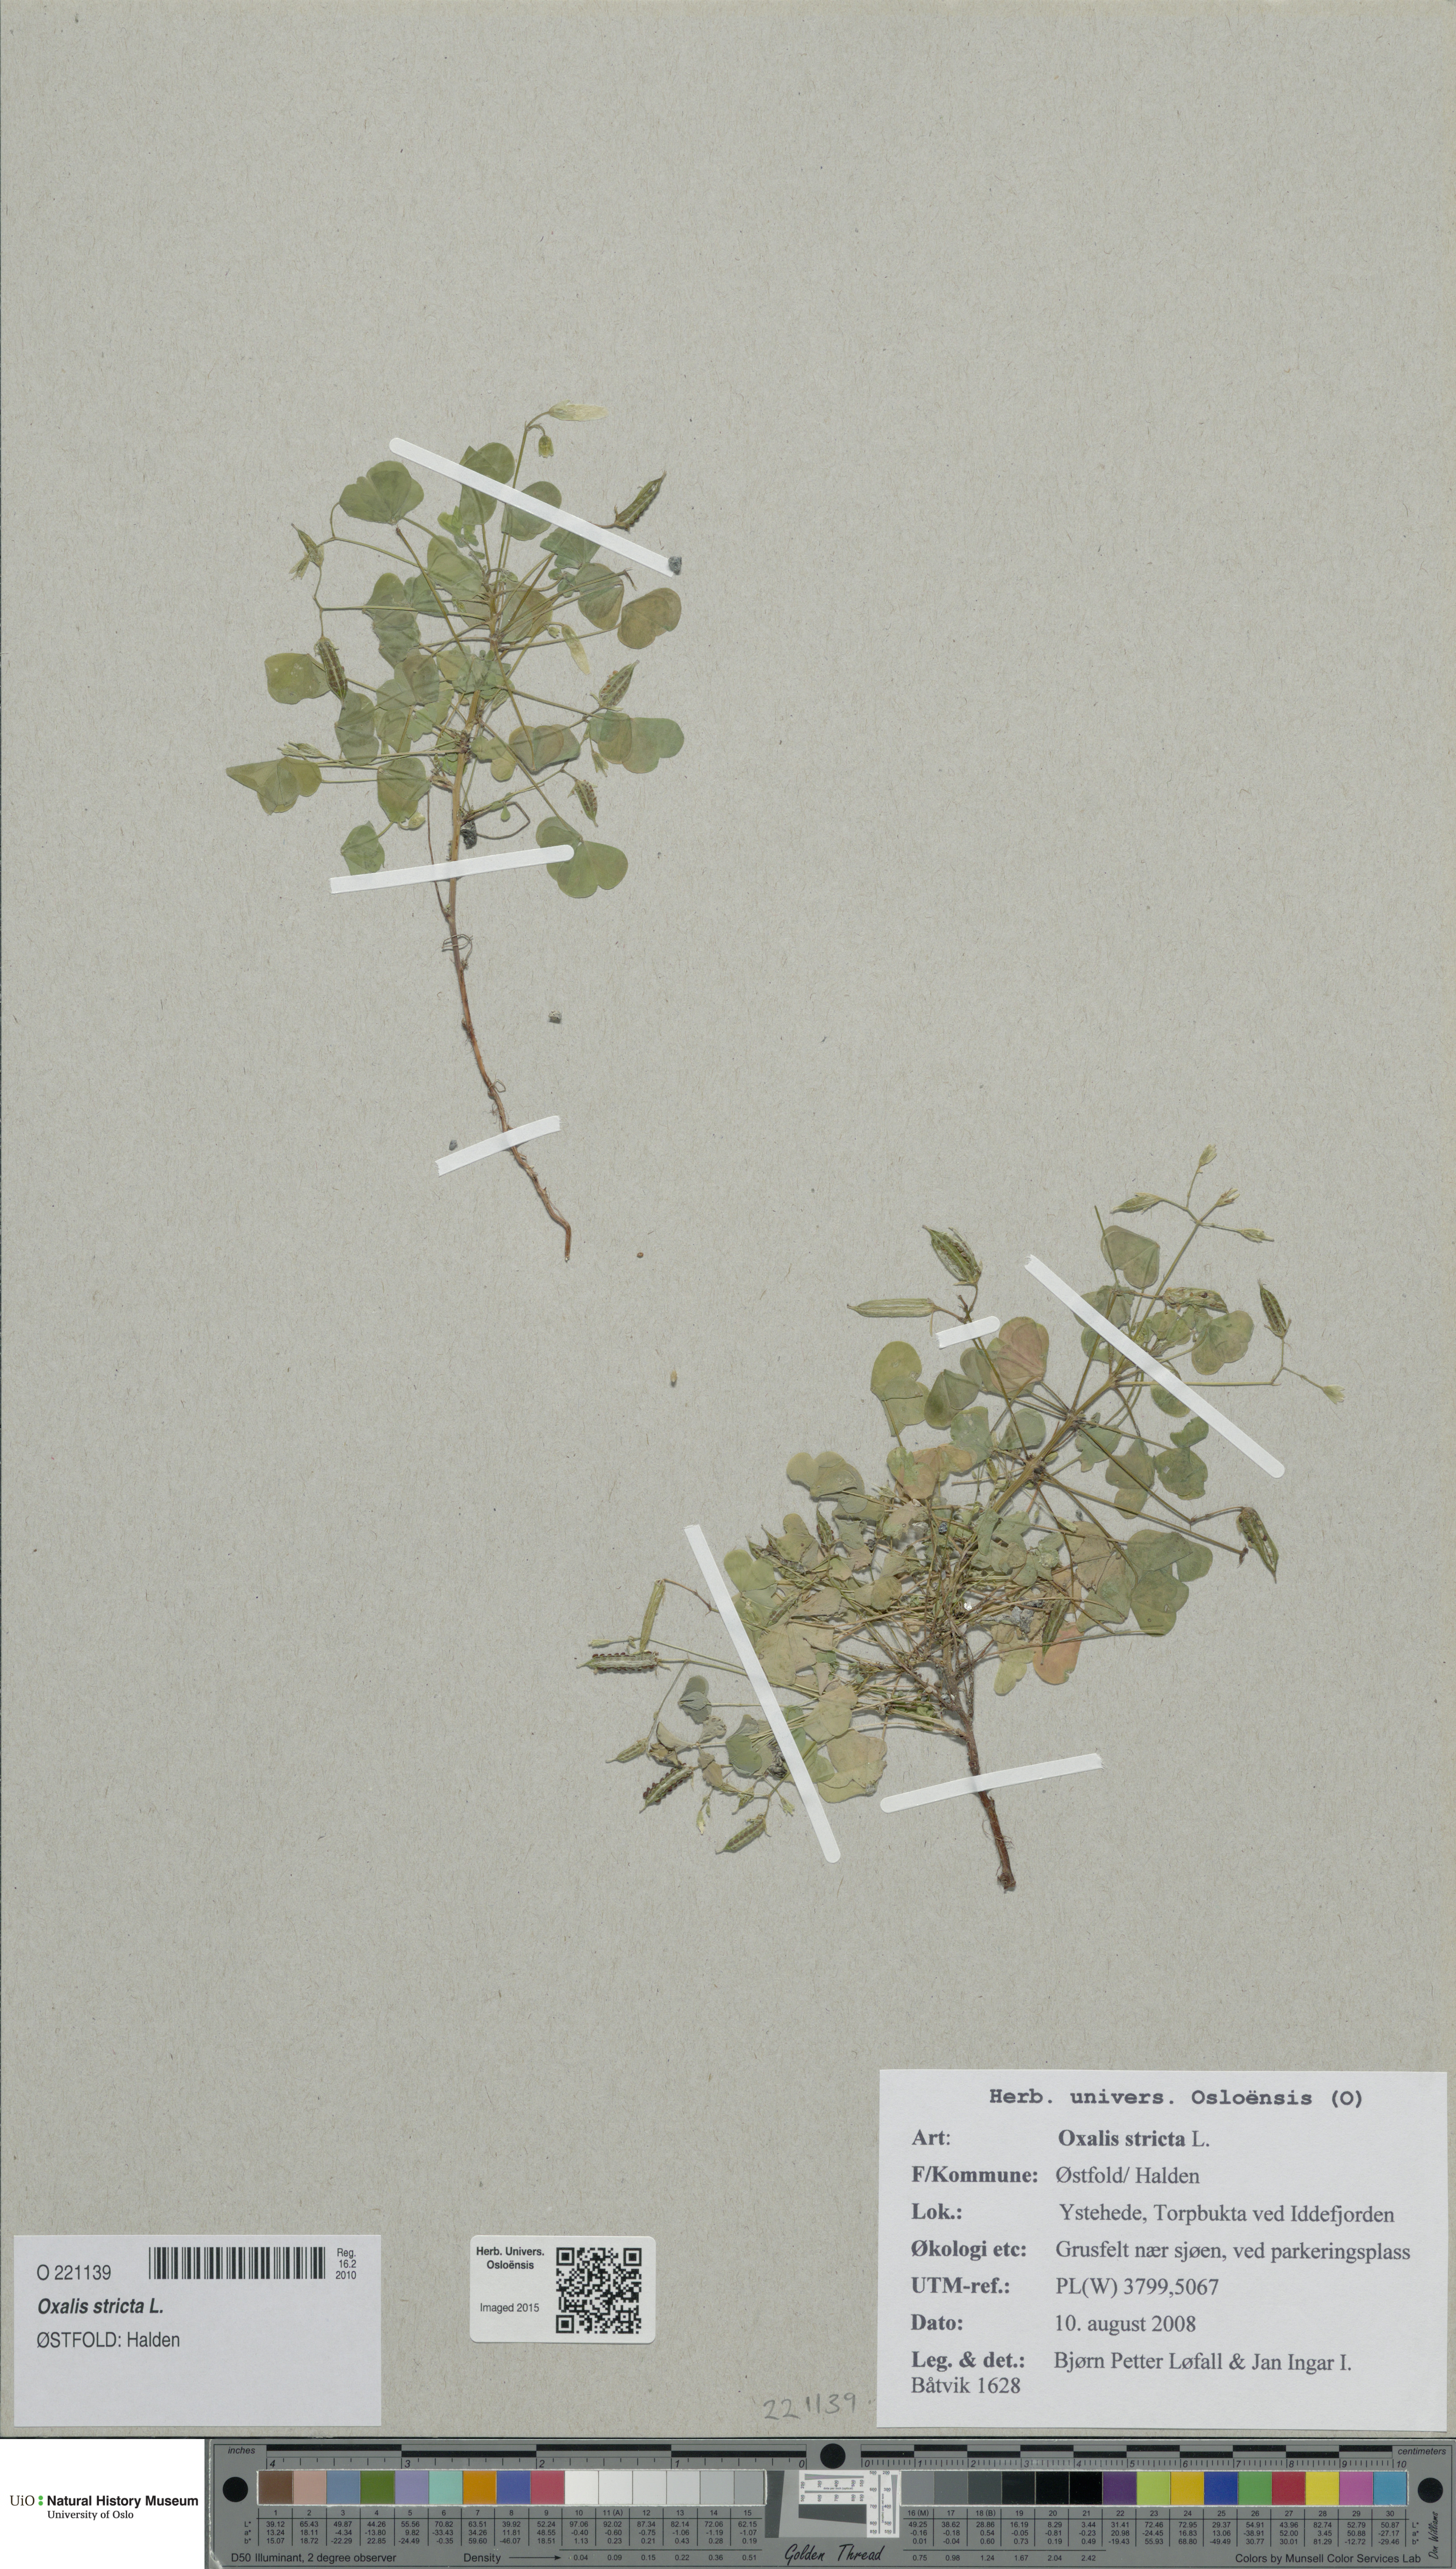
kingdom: Plantae
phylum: Tracheophyta
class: Magnoliopsida
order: Oxalidales
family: Oxalidaceae
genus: Oxalis
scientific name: Oxalis dillenii
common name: Sussex yellow-sorrel
